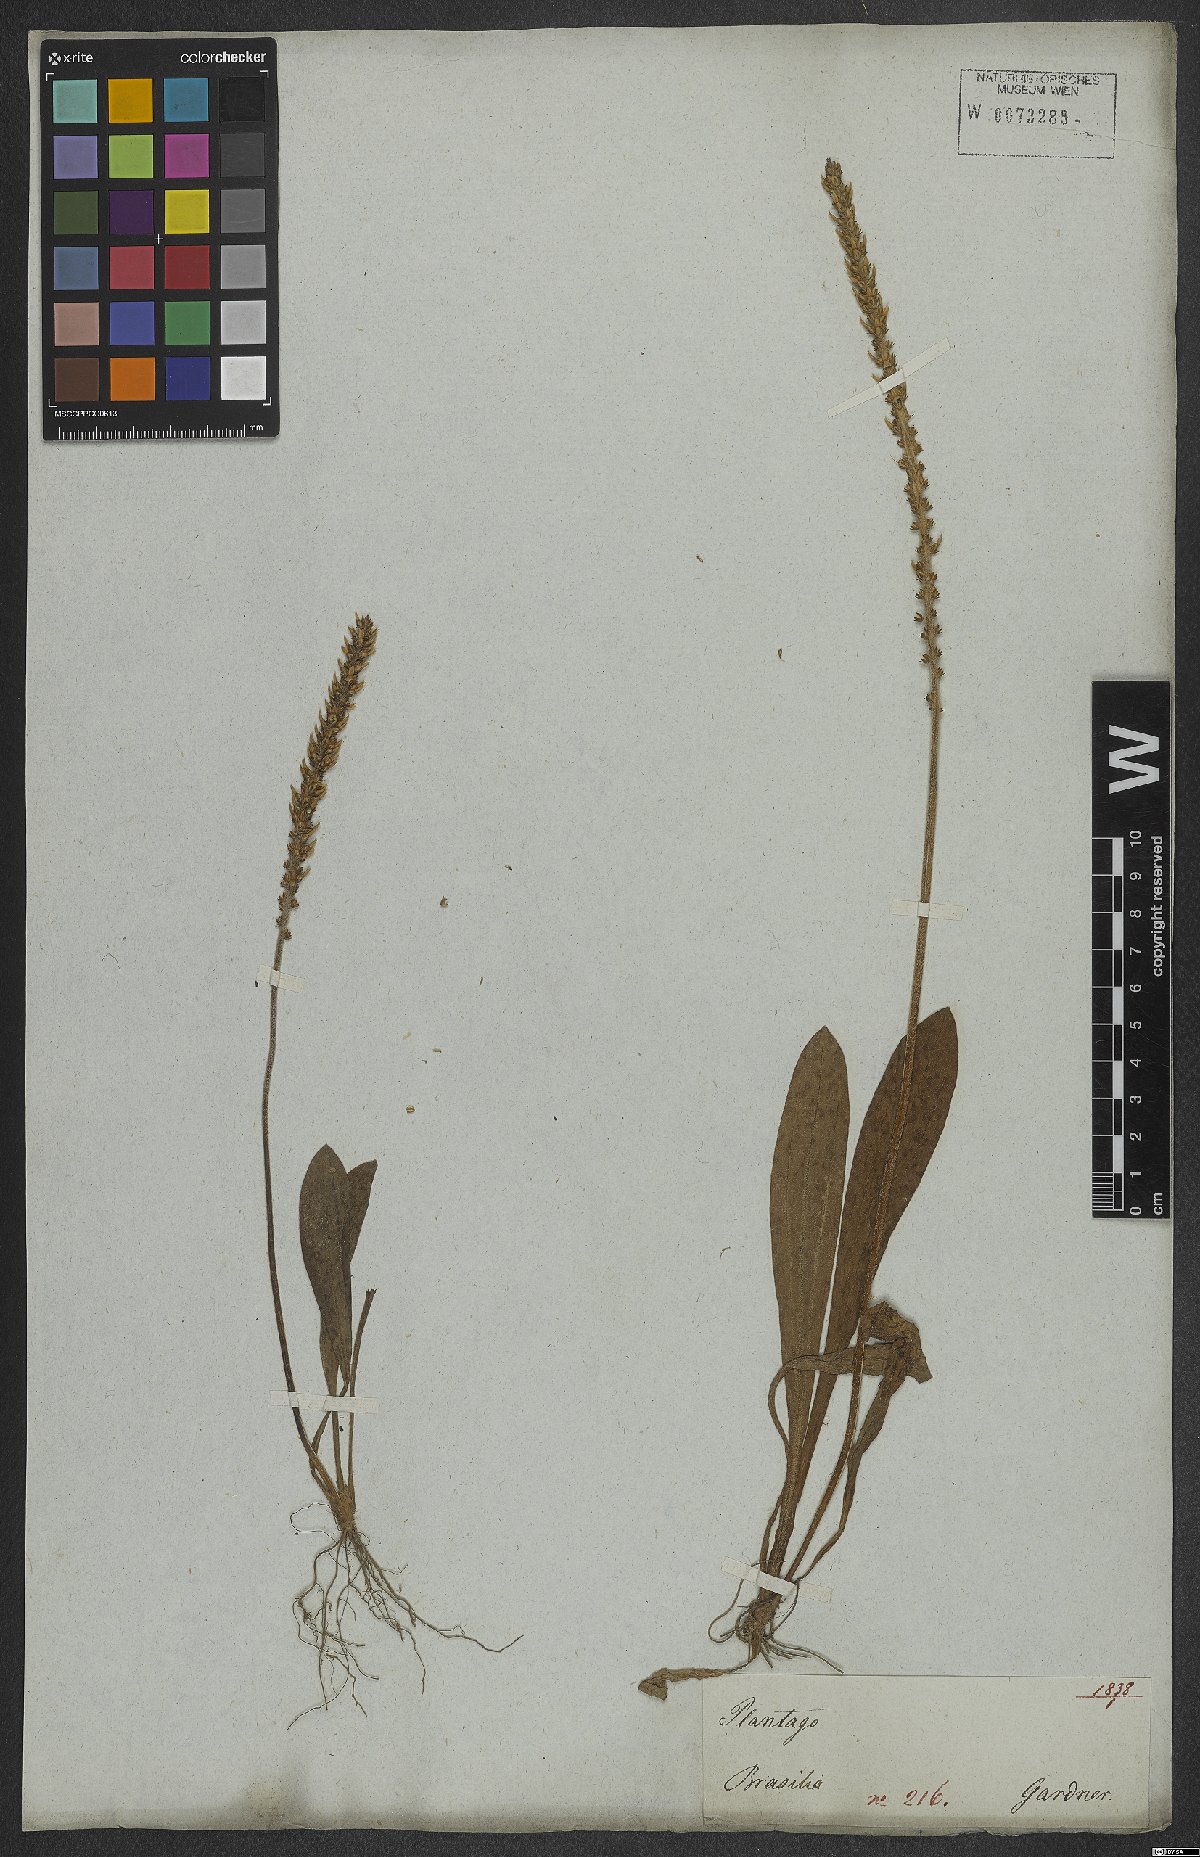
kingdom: Plantae
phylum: Tracheophyta
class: Magnoliopsida
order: Lamiales
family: Plantaginaceae
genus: Plantago
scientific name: Plantago guilleminiana
